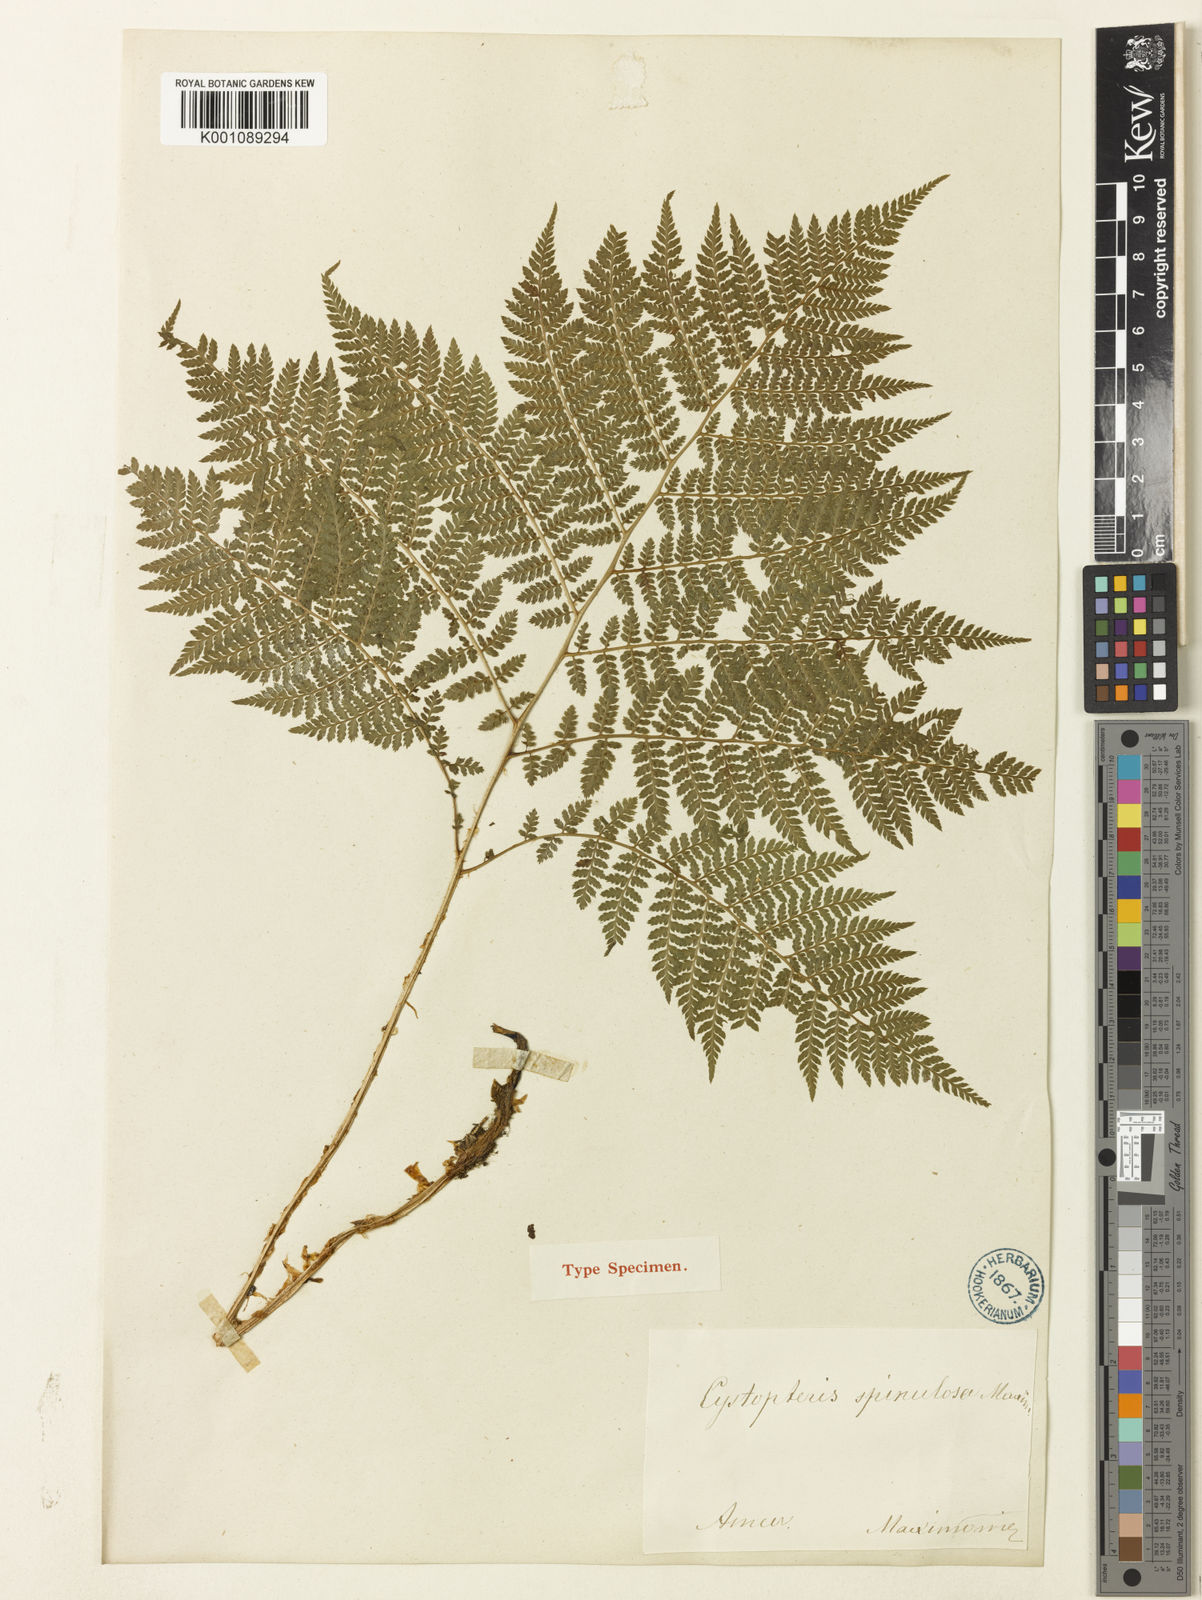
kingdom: Plantae
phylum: Tracheophyta
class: Polypodiopsida
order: Polypodiales
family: Athyriaceae
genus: Athyrium
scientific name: Athyrium spinulosum
